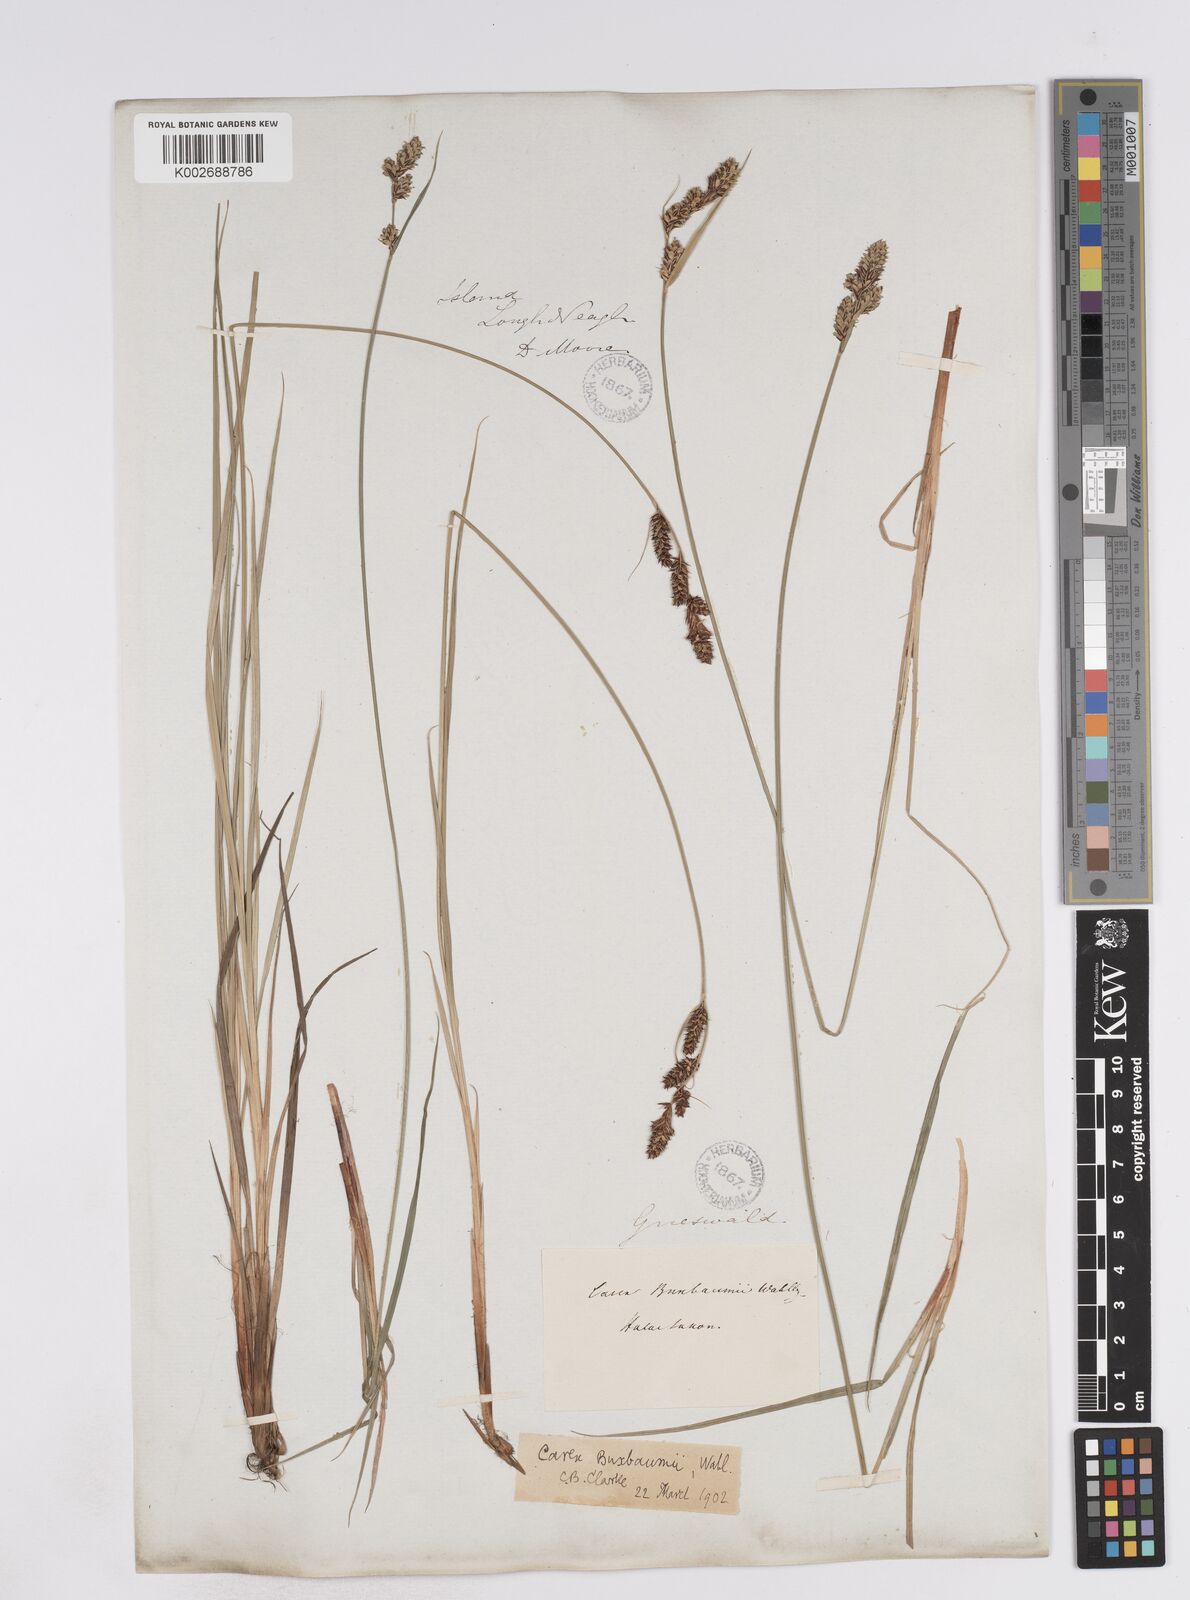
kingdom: Plantae
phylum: Tracheophyta
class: Liliopsida
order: Poales
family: Cyperaceae
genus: Carex
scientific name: Carex buxbaumii
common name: Club sedge
